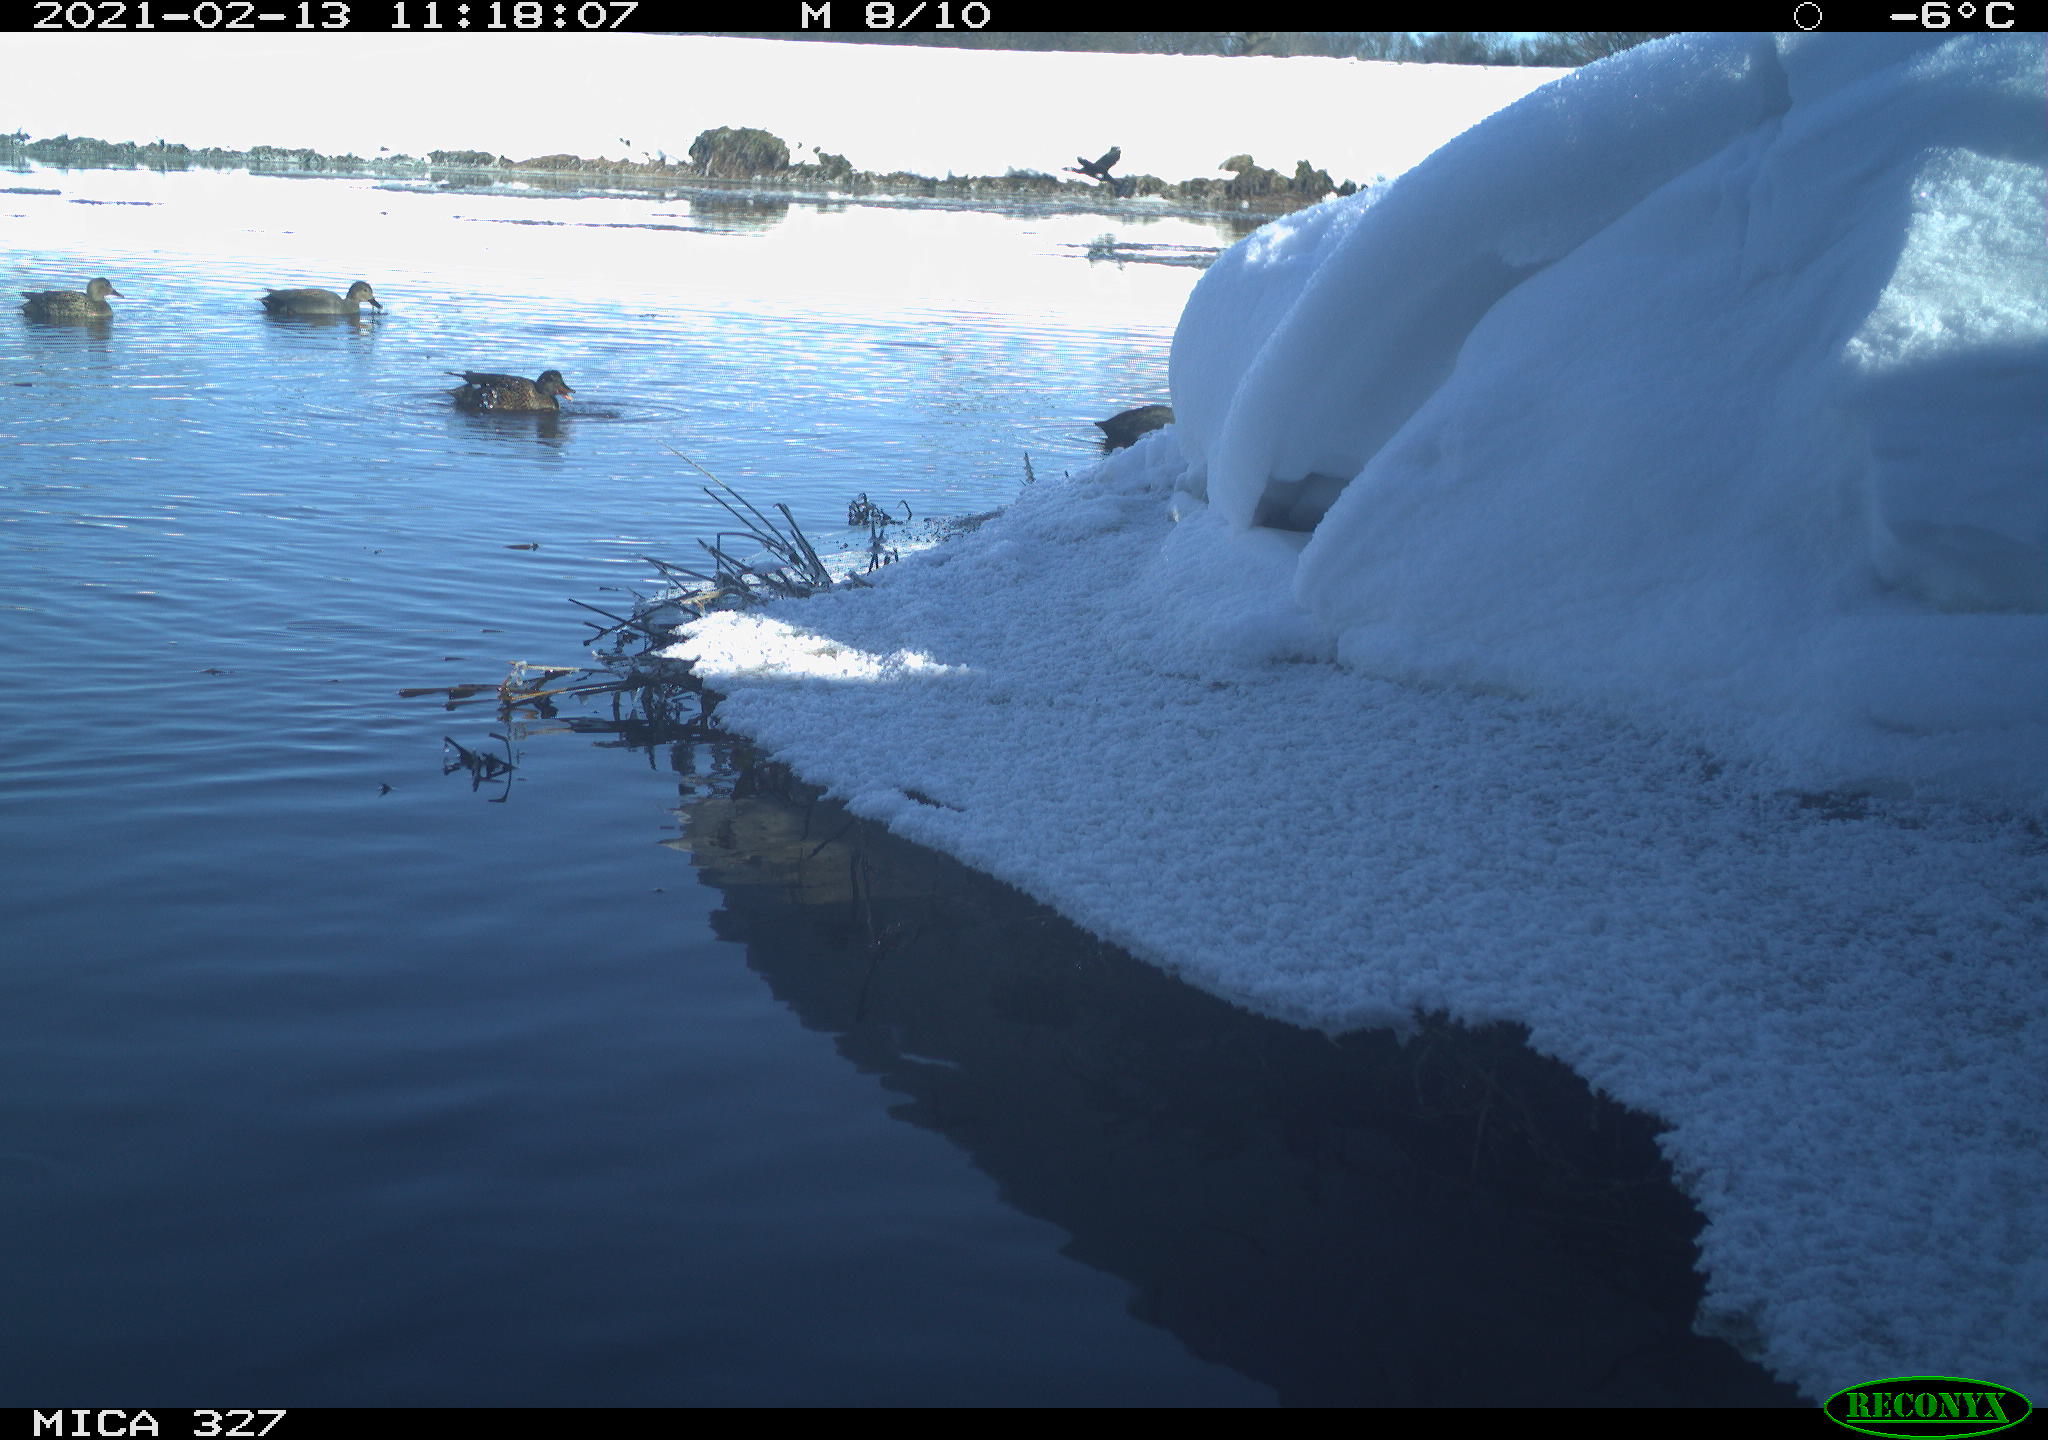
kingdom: Animalia
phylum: Chordata
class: Aves
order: Gruiformes
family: Rallidae
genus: Fulica
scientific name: Fulica atra
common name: Eurasian coot
